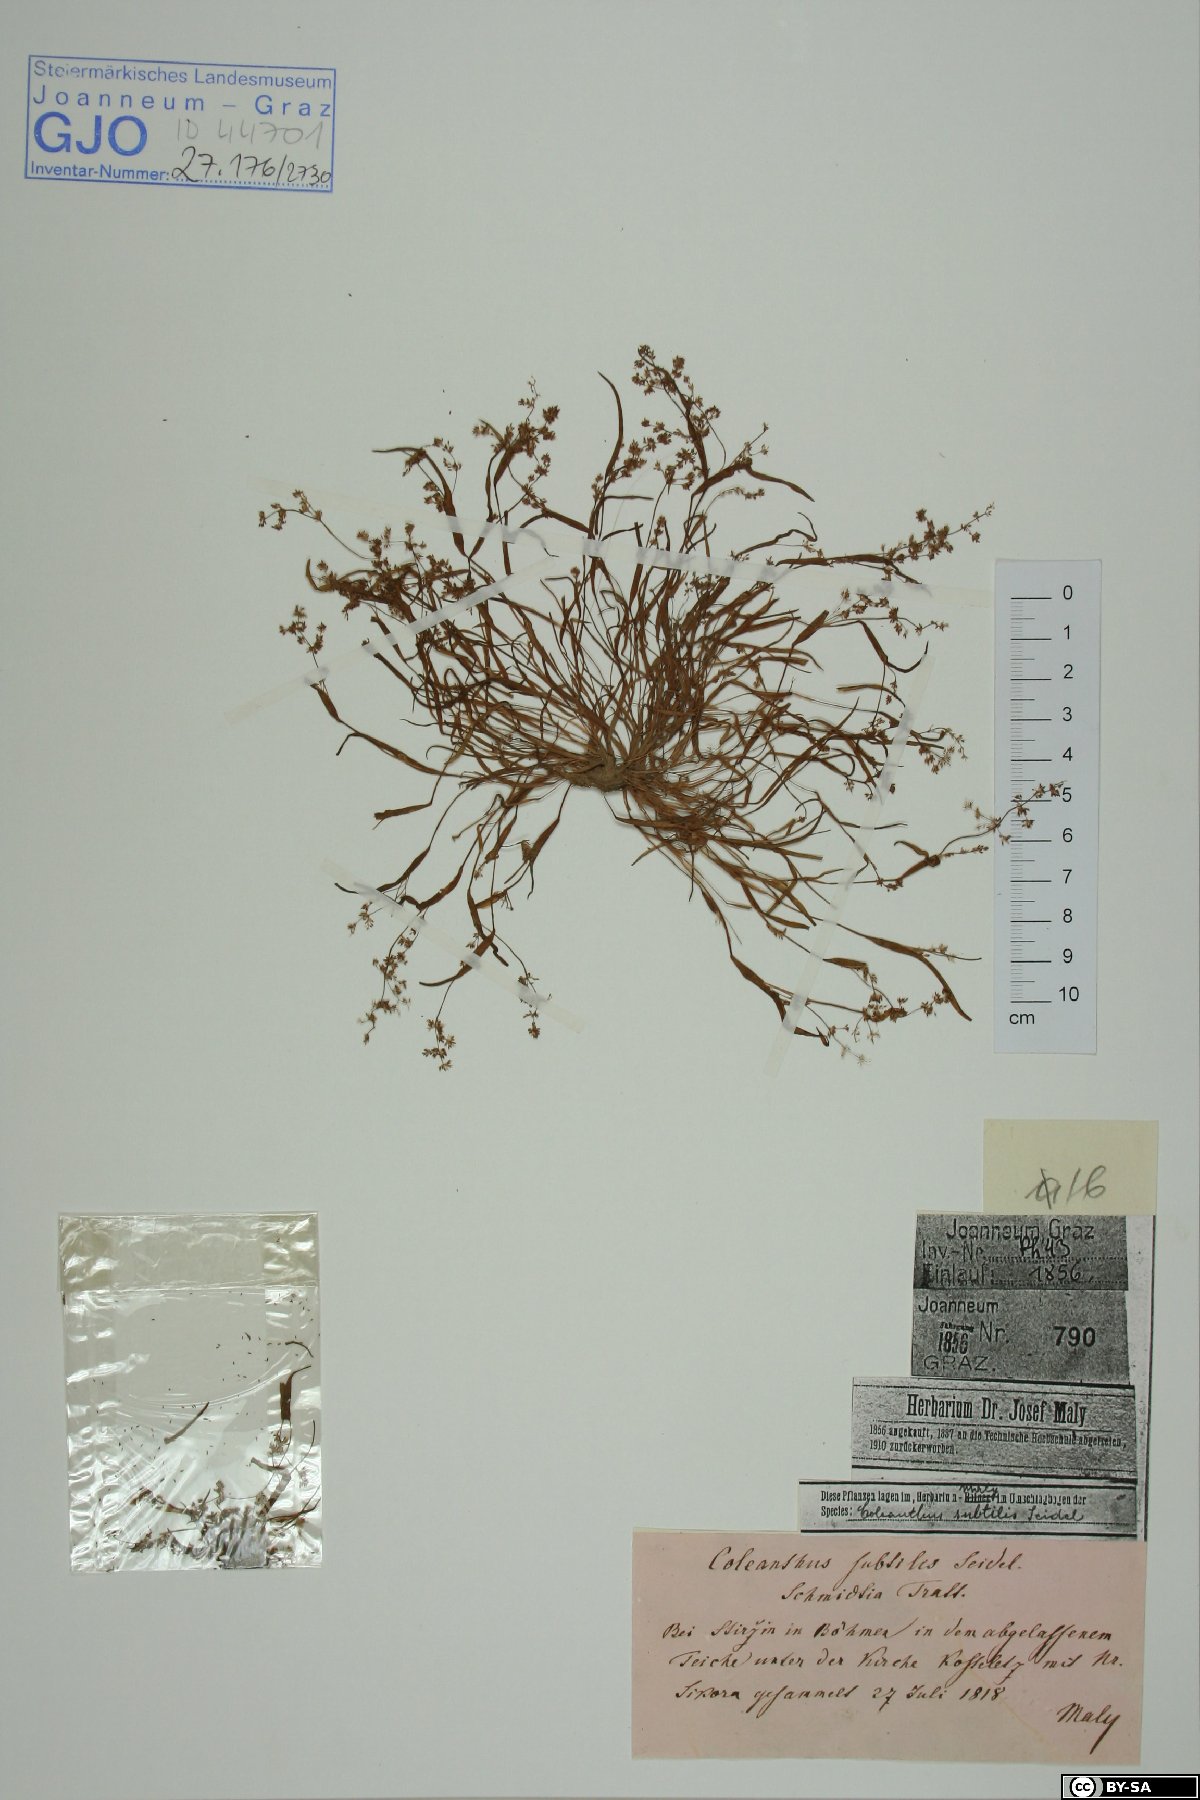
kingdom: Plantae
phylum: Tracheophyta
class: Liliopsida
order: Poales
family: Poaceae
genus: Coleanthus
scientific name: Coleanthus subtilis
